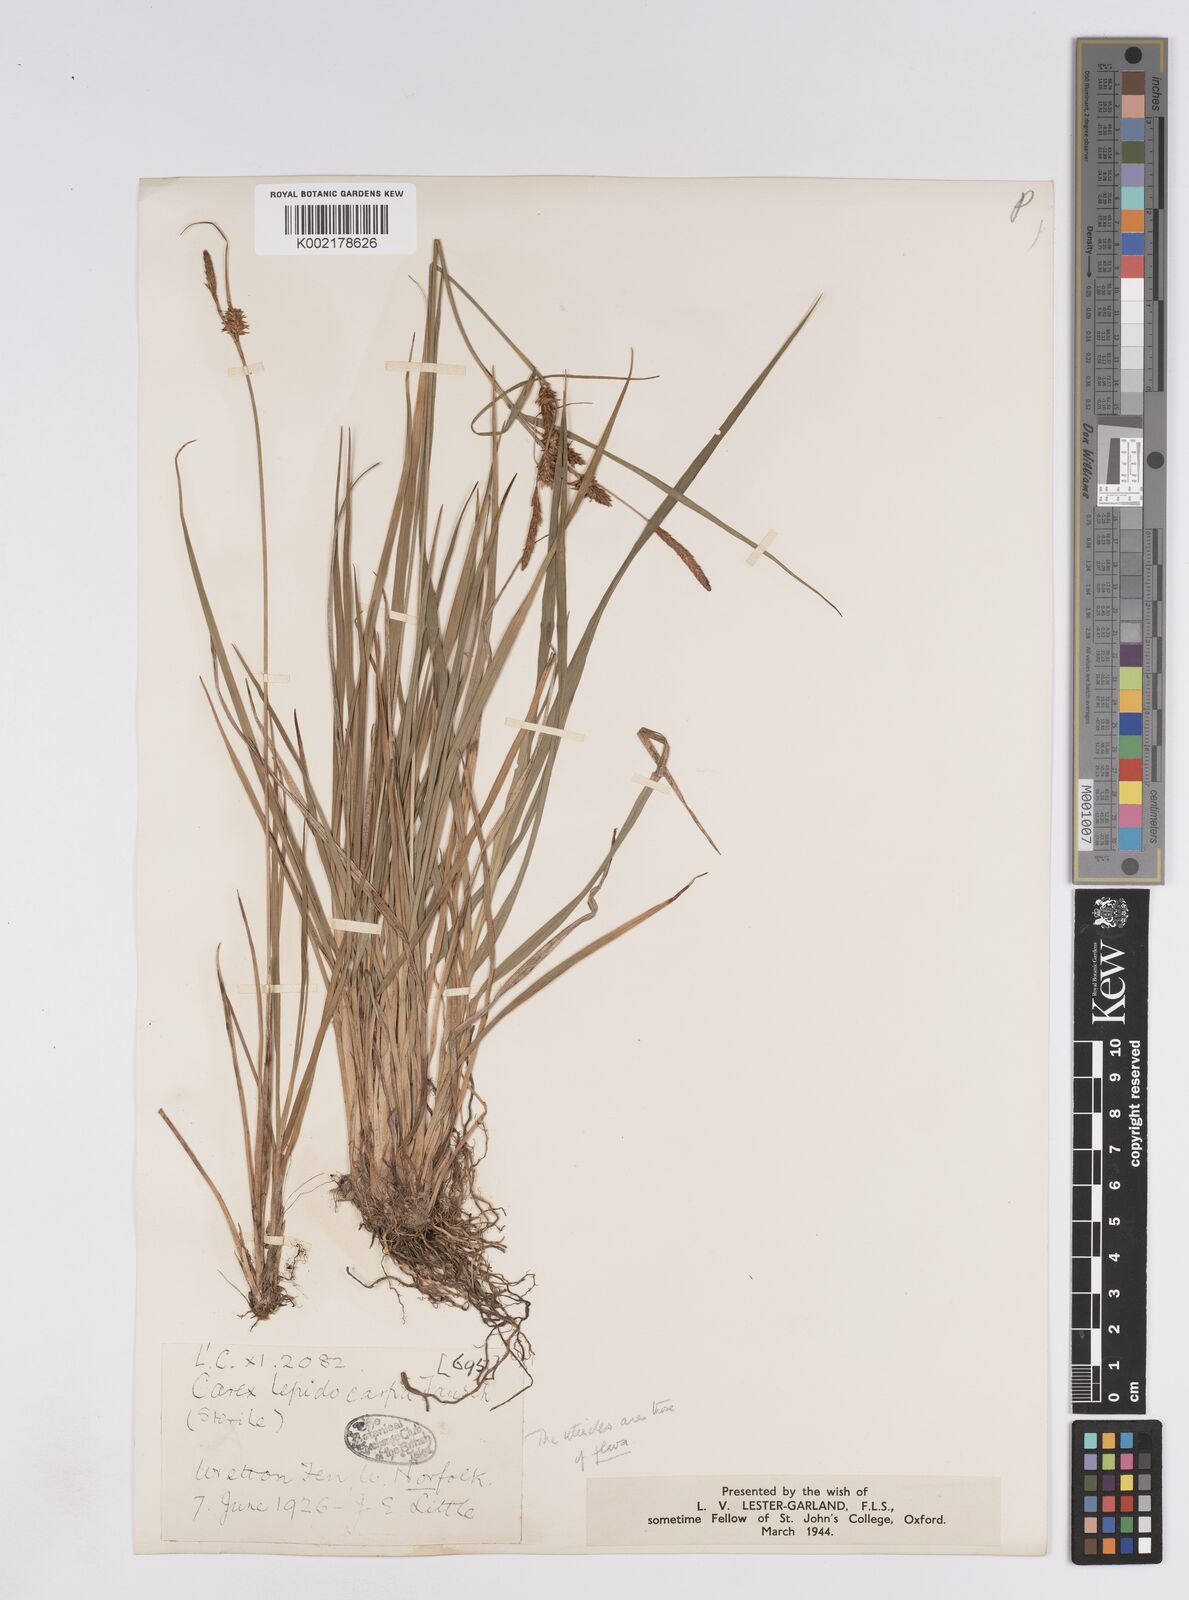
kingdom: Plantae
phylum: Tracheophyta
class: Liliopsida
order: Poales
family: Cyperaceae
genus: Carex
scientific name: Carex lepidocarpa
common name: Long-stalked yellow-sedge
